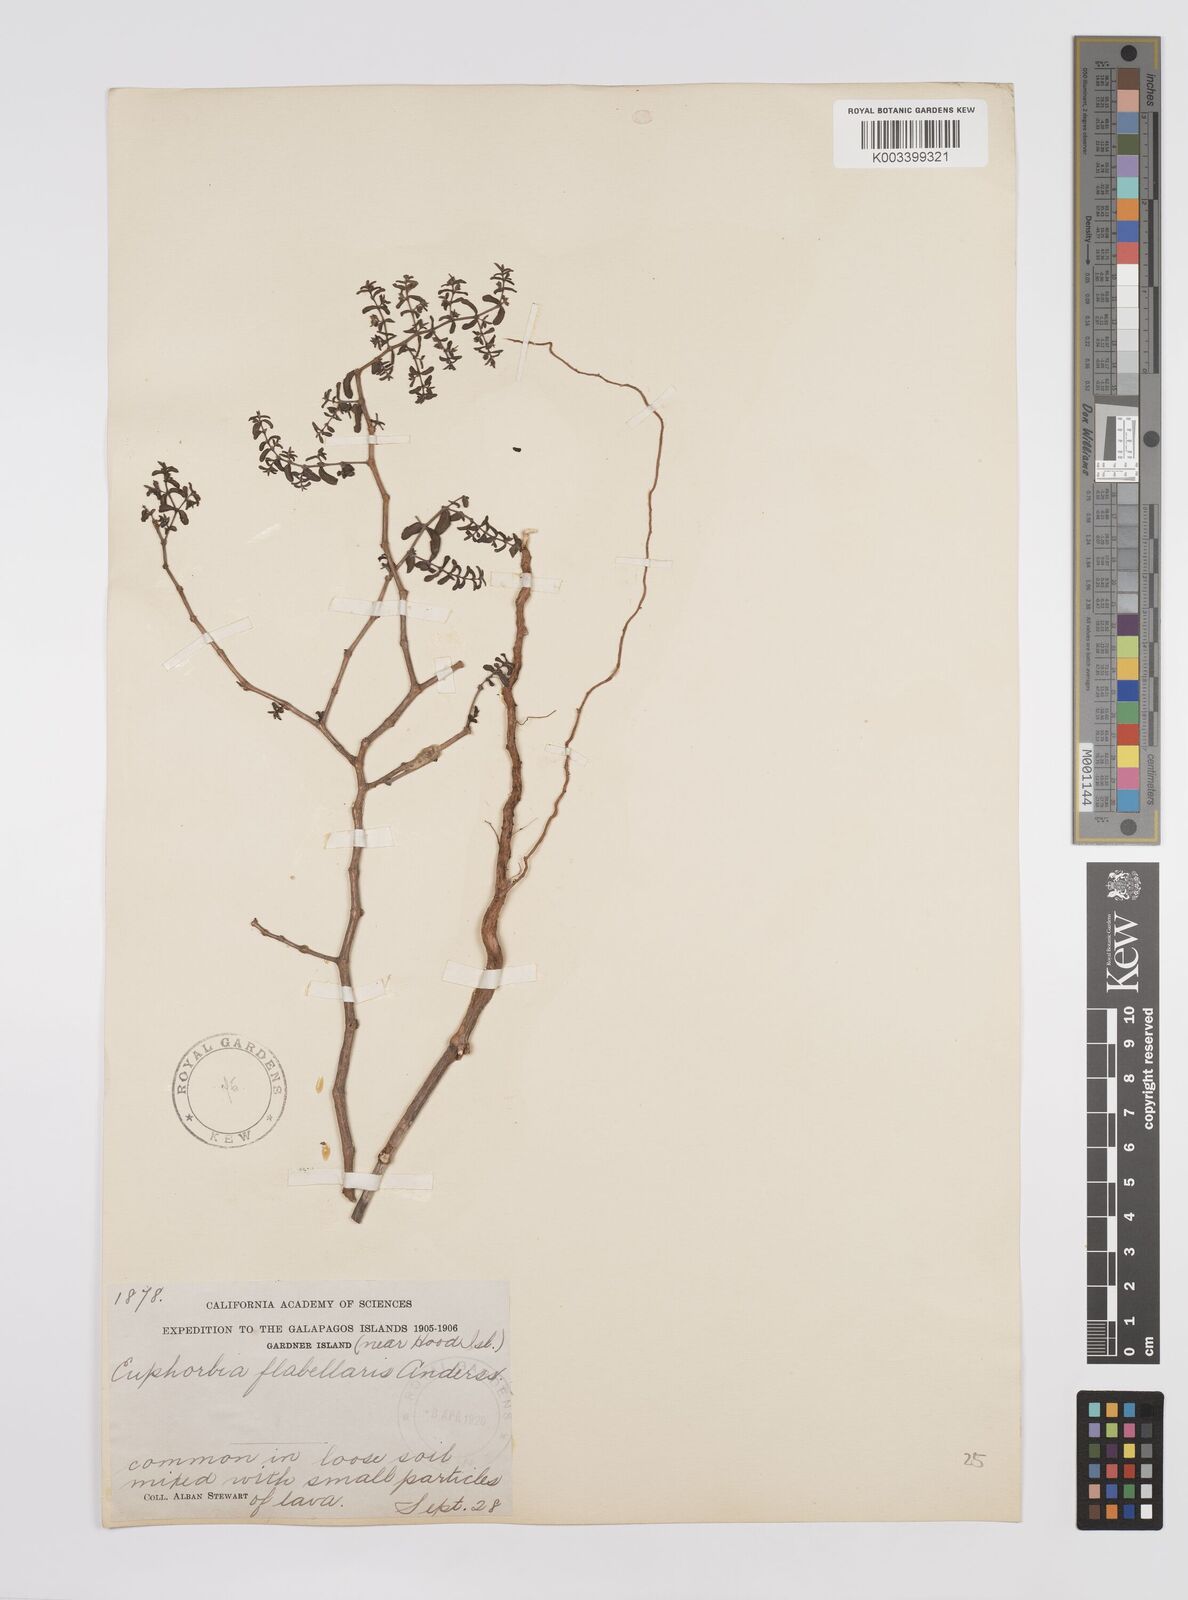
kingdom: Plantae
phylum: Tracheophyta
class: Magnoliopsida
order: Malpighiales
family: Euphorbiaceae
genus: Euphorbia
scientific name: Euphorbia recurva
